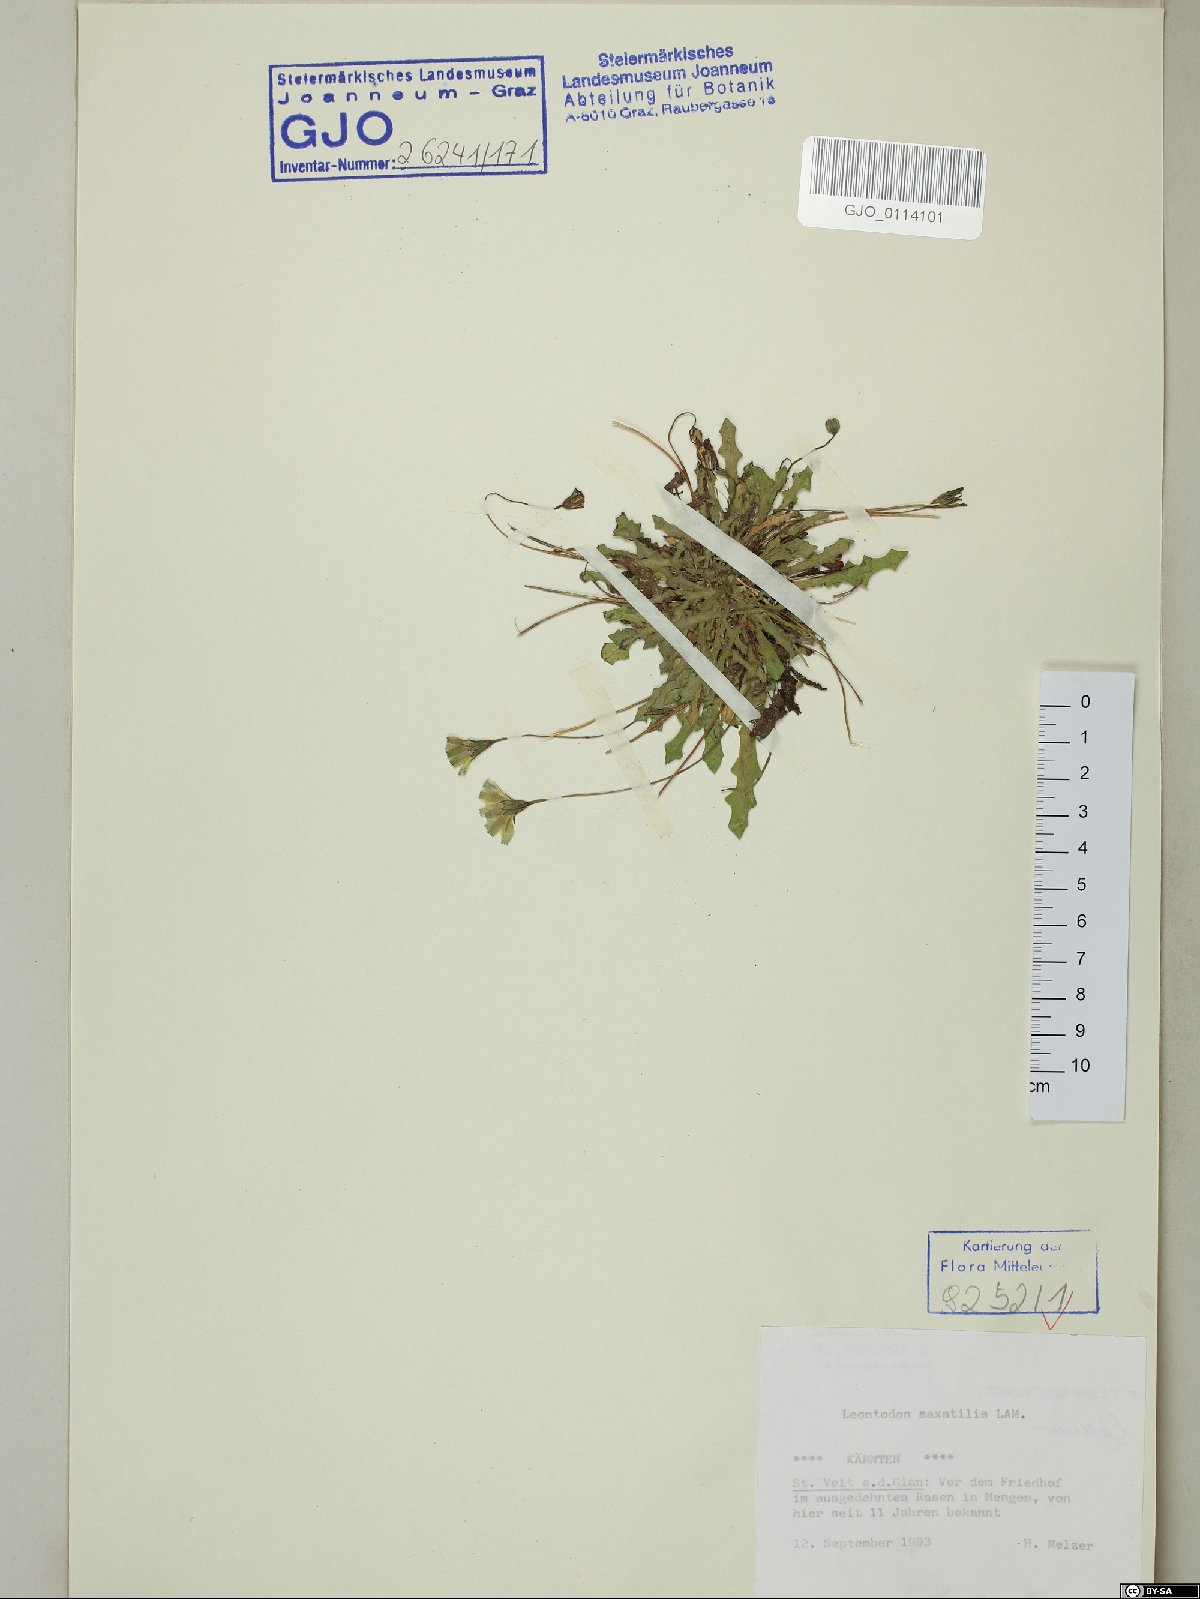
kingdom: Plantae
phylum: Tracheophyta
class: Magnoliopsida
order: Asterales
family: Asteraceae
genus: Thrincia
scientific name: Thrincia saxatilis
